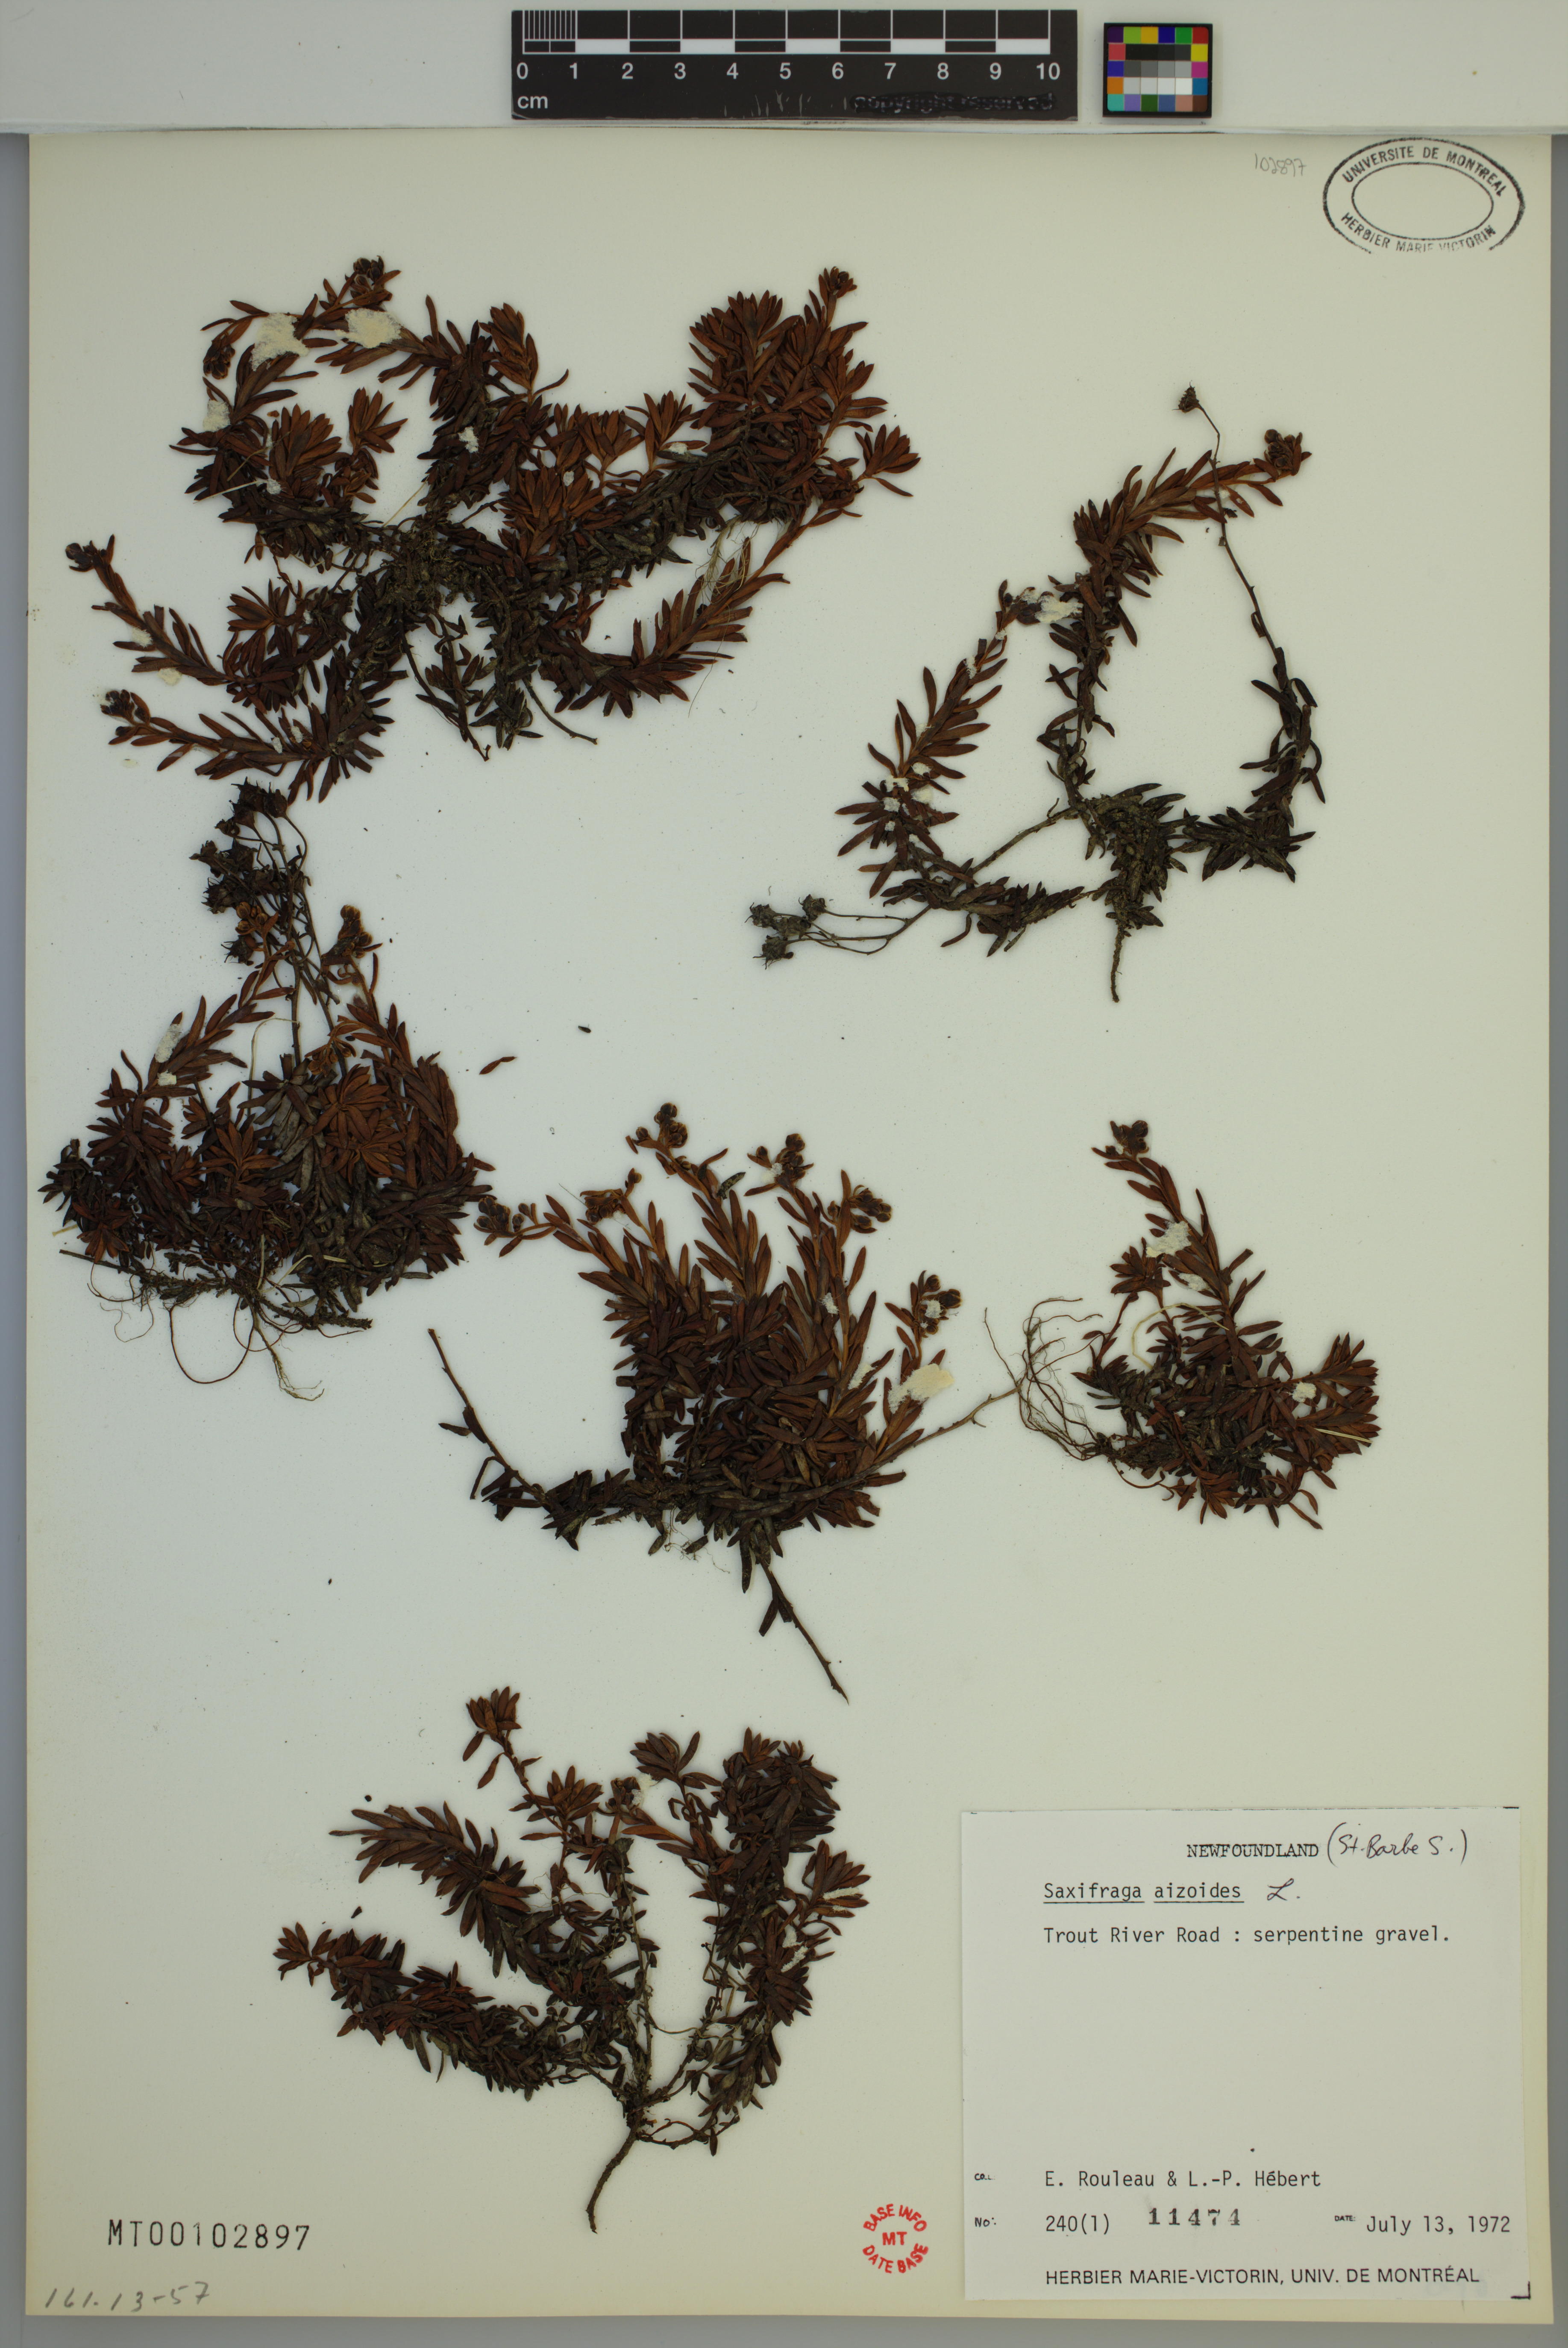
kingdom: Plantae
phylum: Tracheophyta
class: Magnoliopsida
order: Saxifragales
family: Saxifragaceae
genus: Saxifraga
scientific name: Saxifraga aizoides
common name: Yellow mountain saxifrage
